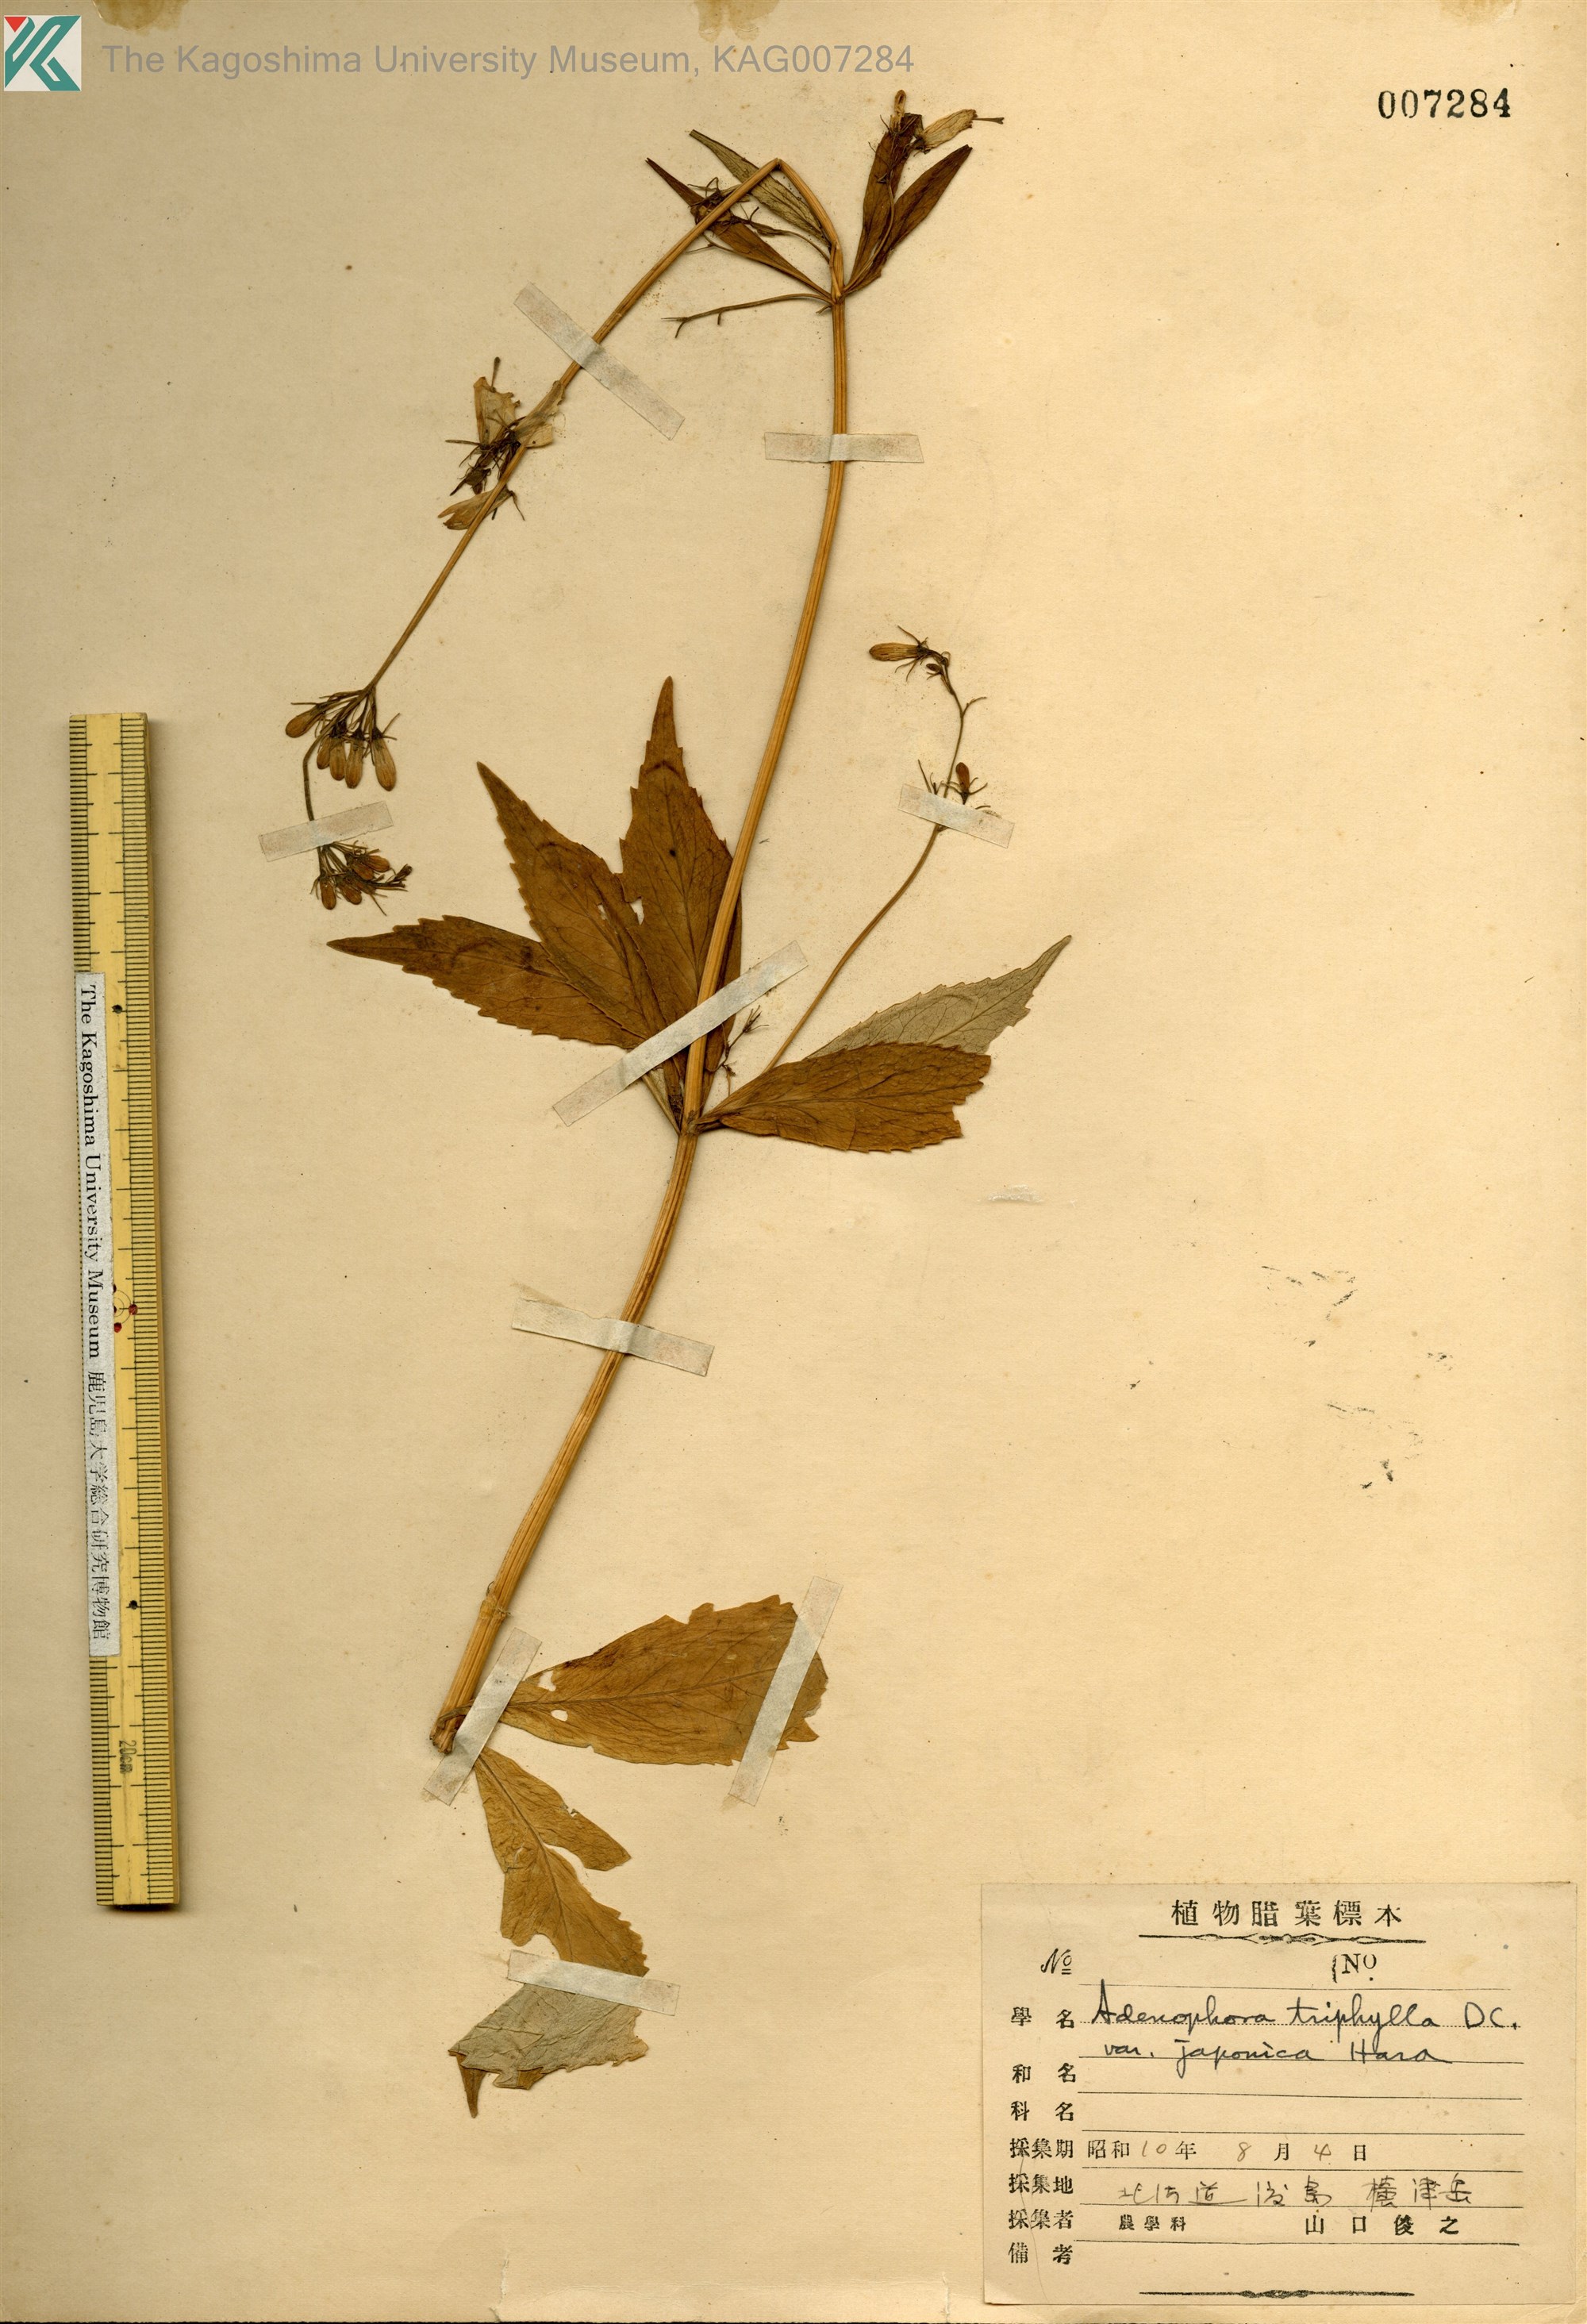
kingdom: Plantae
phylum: Tracheophyta
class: Magnoliopsida
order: Asterales
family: Campanulaceae
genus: Adenophora
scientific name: Adenophora triphylla
